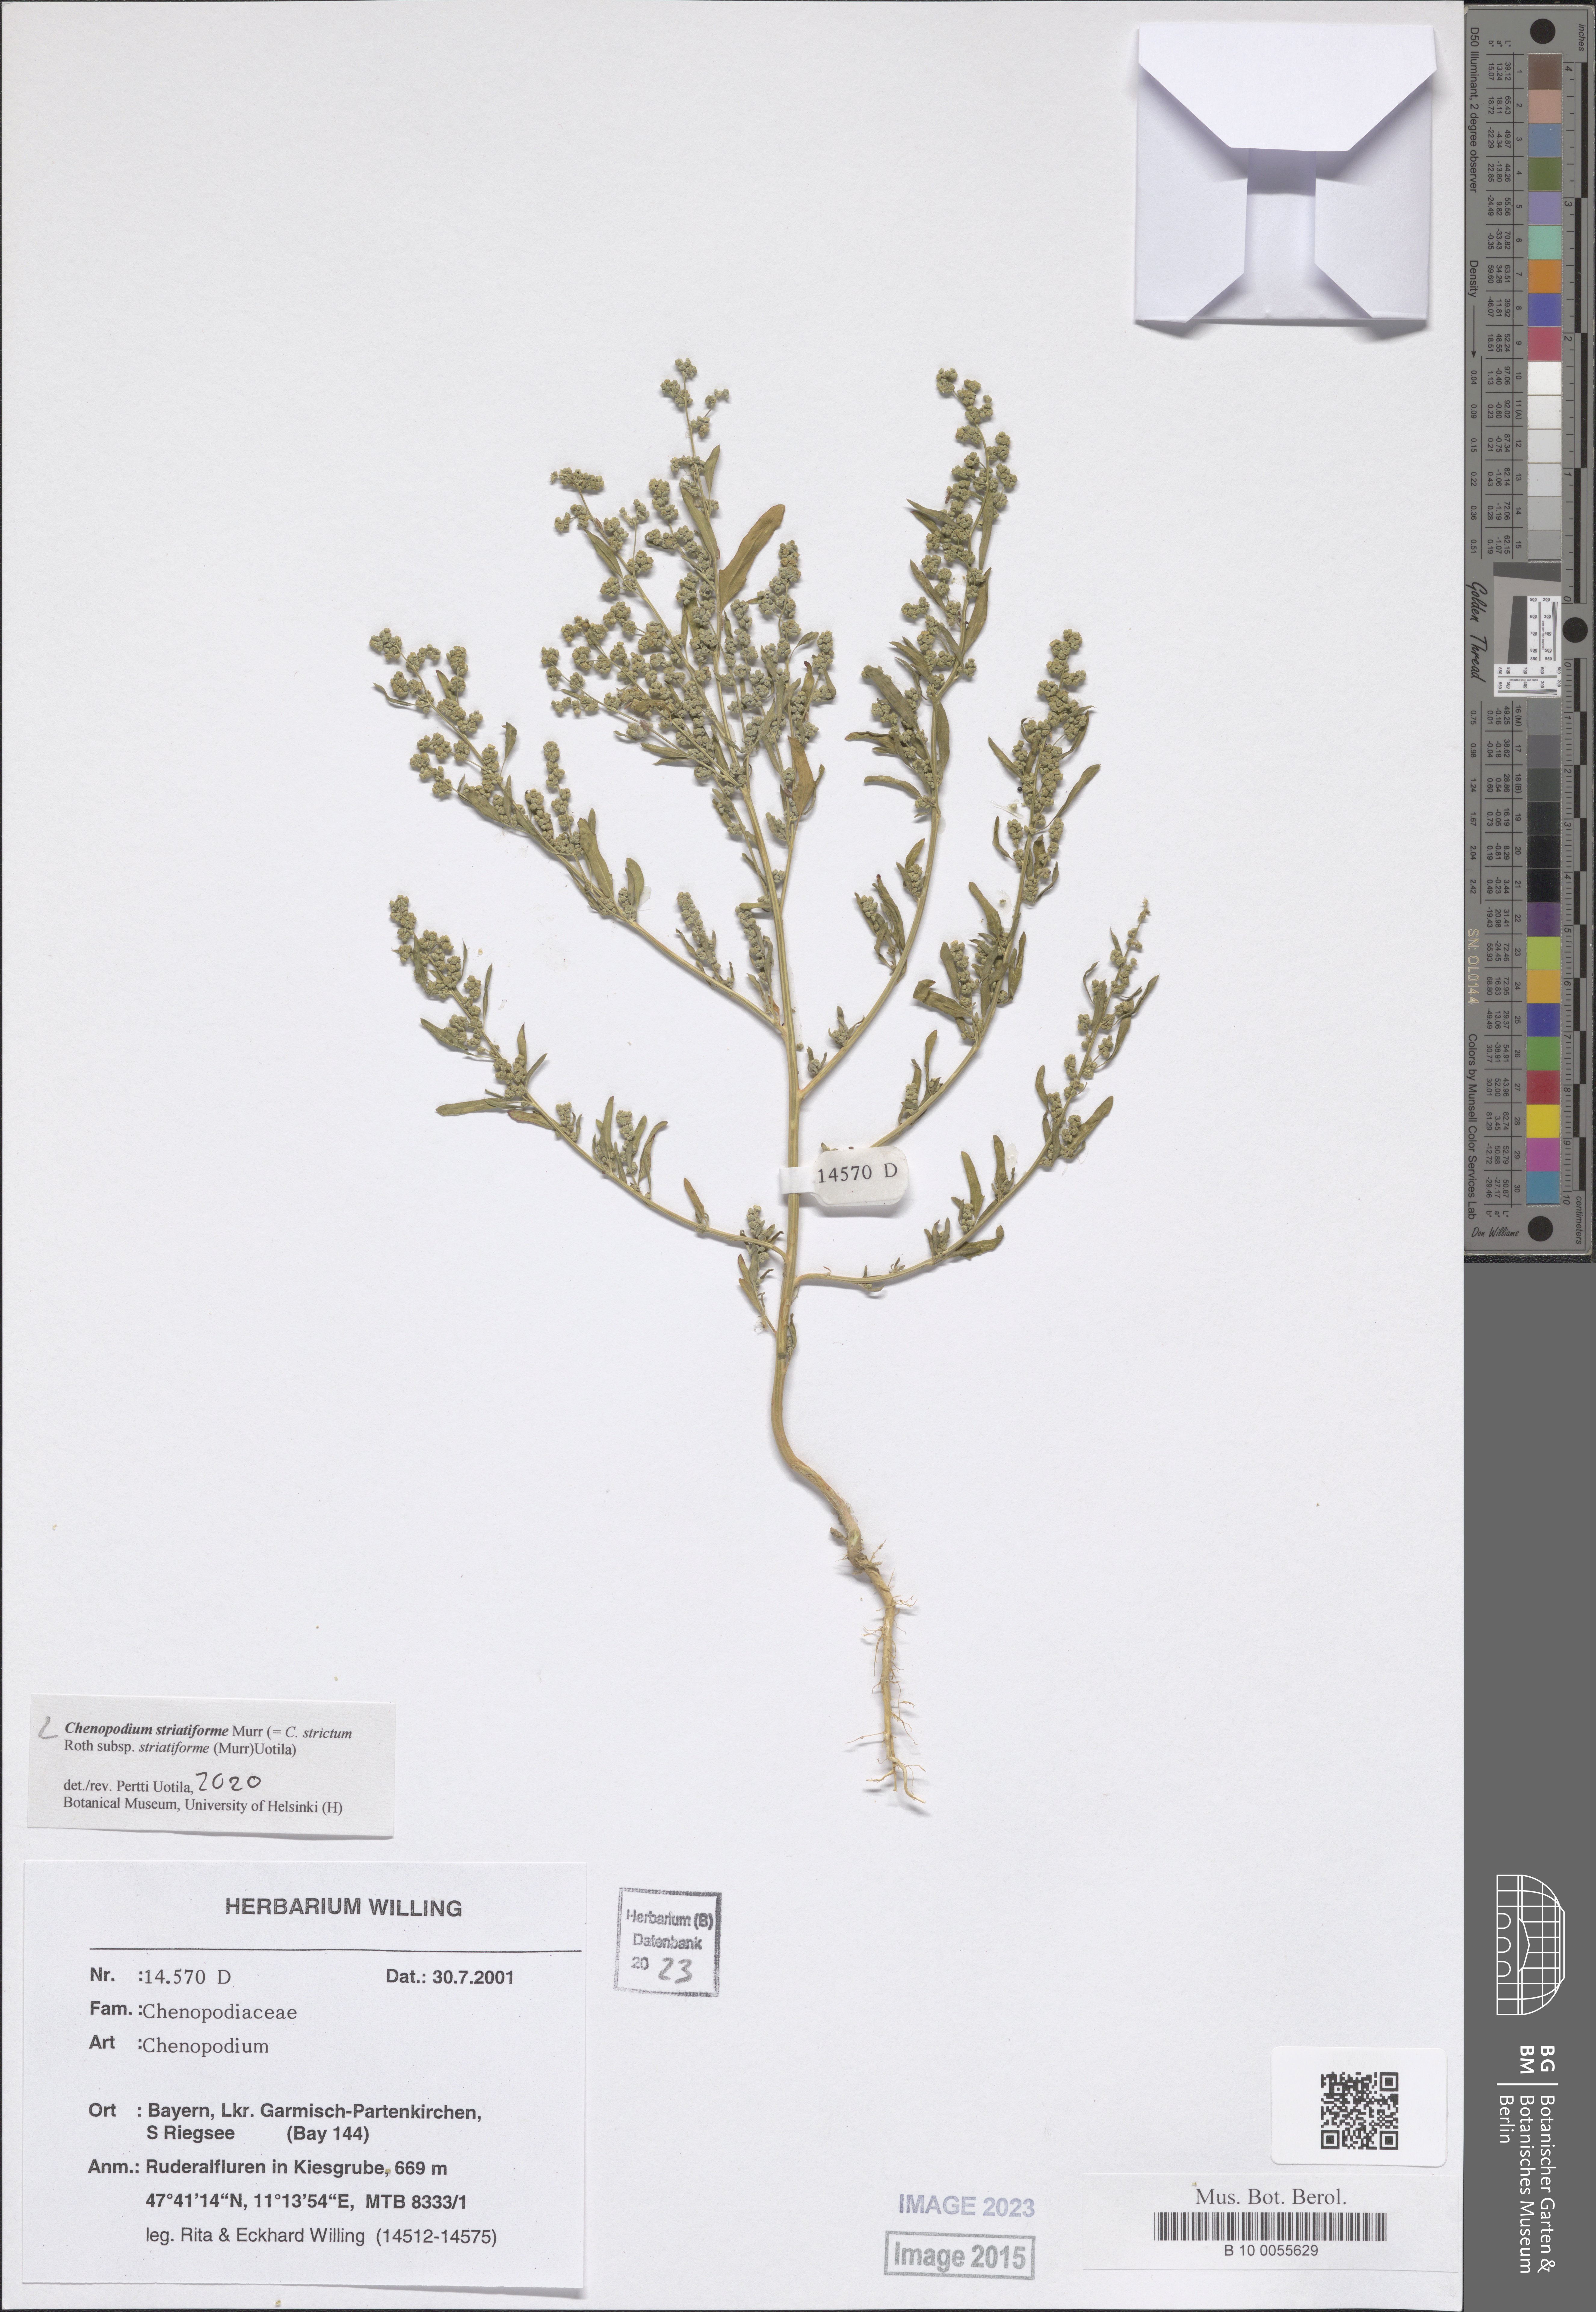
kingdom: Plantae
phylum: Tracheophyta
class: Magnoliopsida
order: Caryophyllales
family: Amaranthaceae
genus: Chenopodium
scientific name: Chenopodium striatiforme
